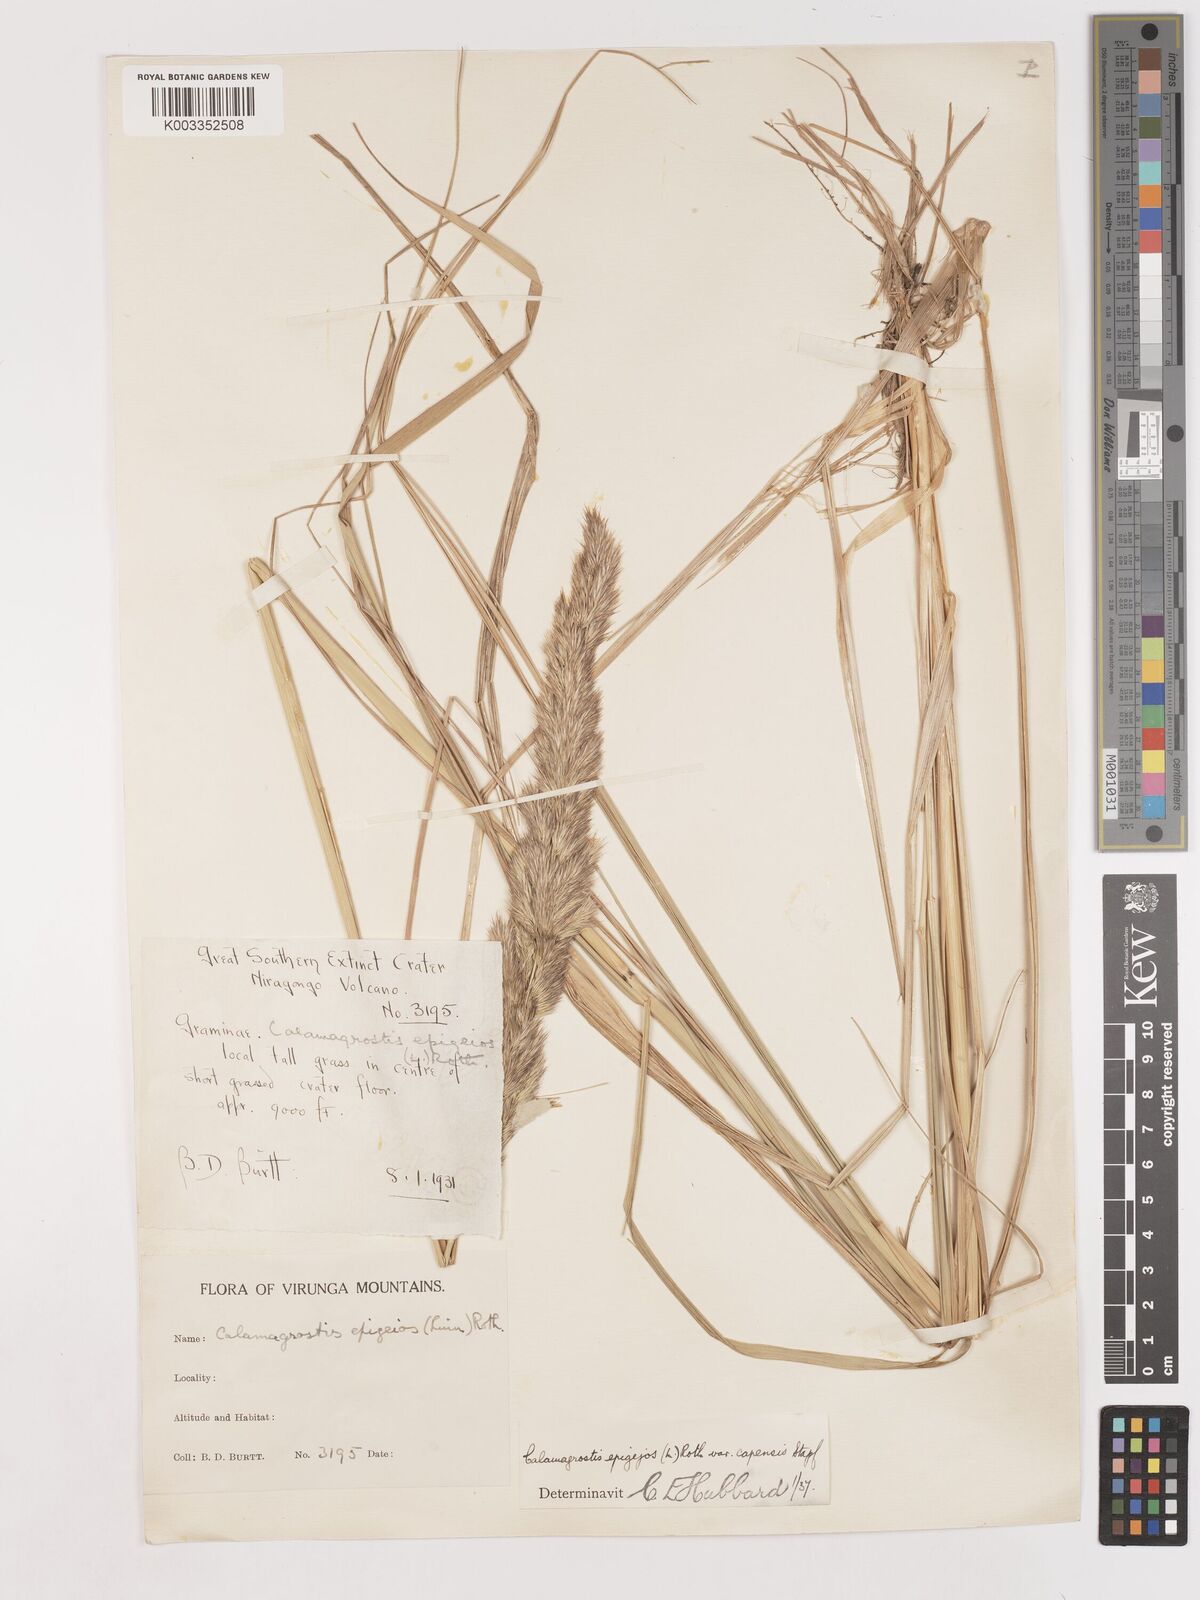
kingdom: Plantae
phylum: Tracheophyta
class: Liliopsida
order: Poales
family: Poaceae
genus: Calamagrostis
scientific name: Calamagrostis epigejos
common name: Wood small-reed
